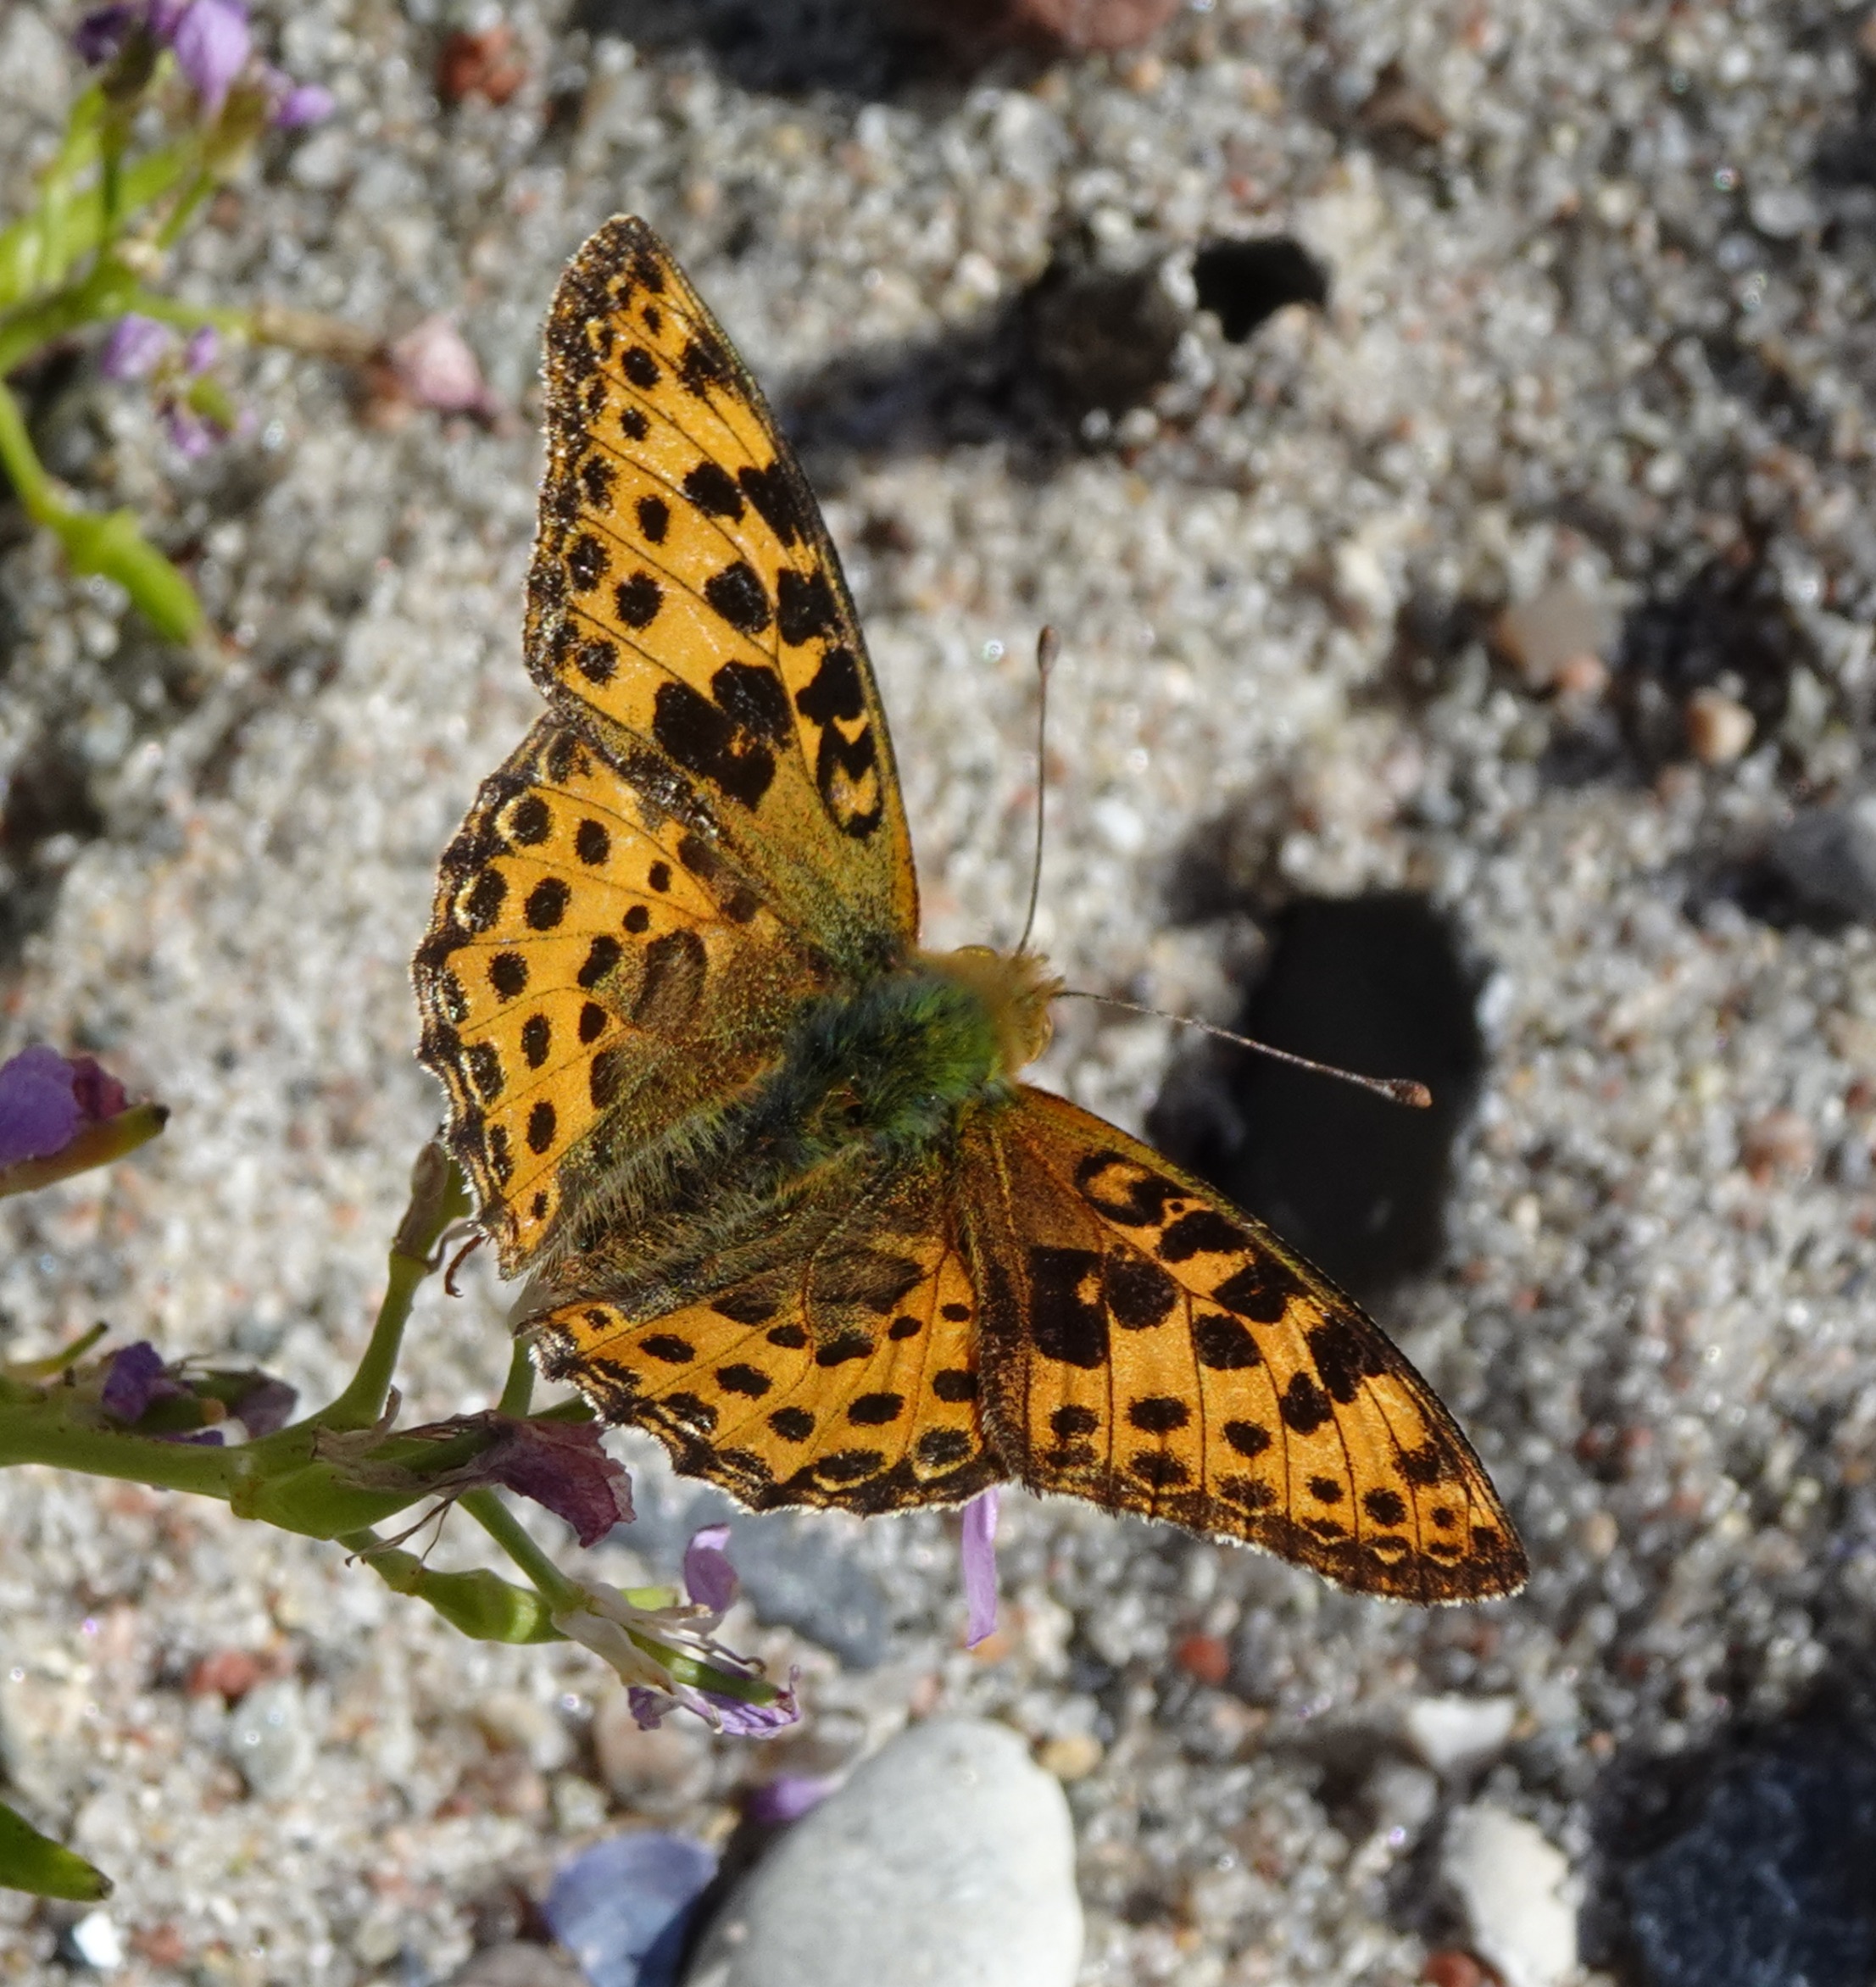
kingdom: Animalia
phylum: Arthropoda
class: Insecta
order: Lepidoptera
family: Nymphalidae
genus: Issoria
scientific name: Issoria lathonia
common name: Storplettet perlemorsommerfugl
